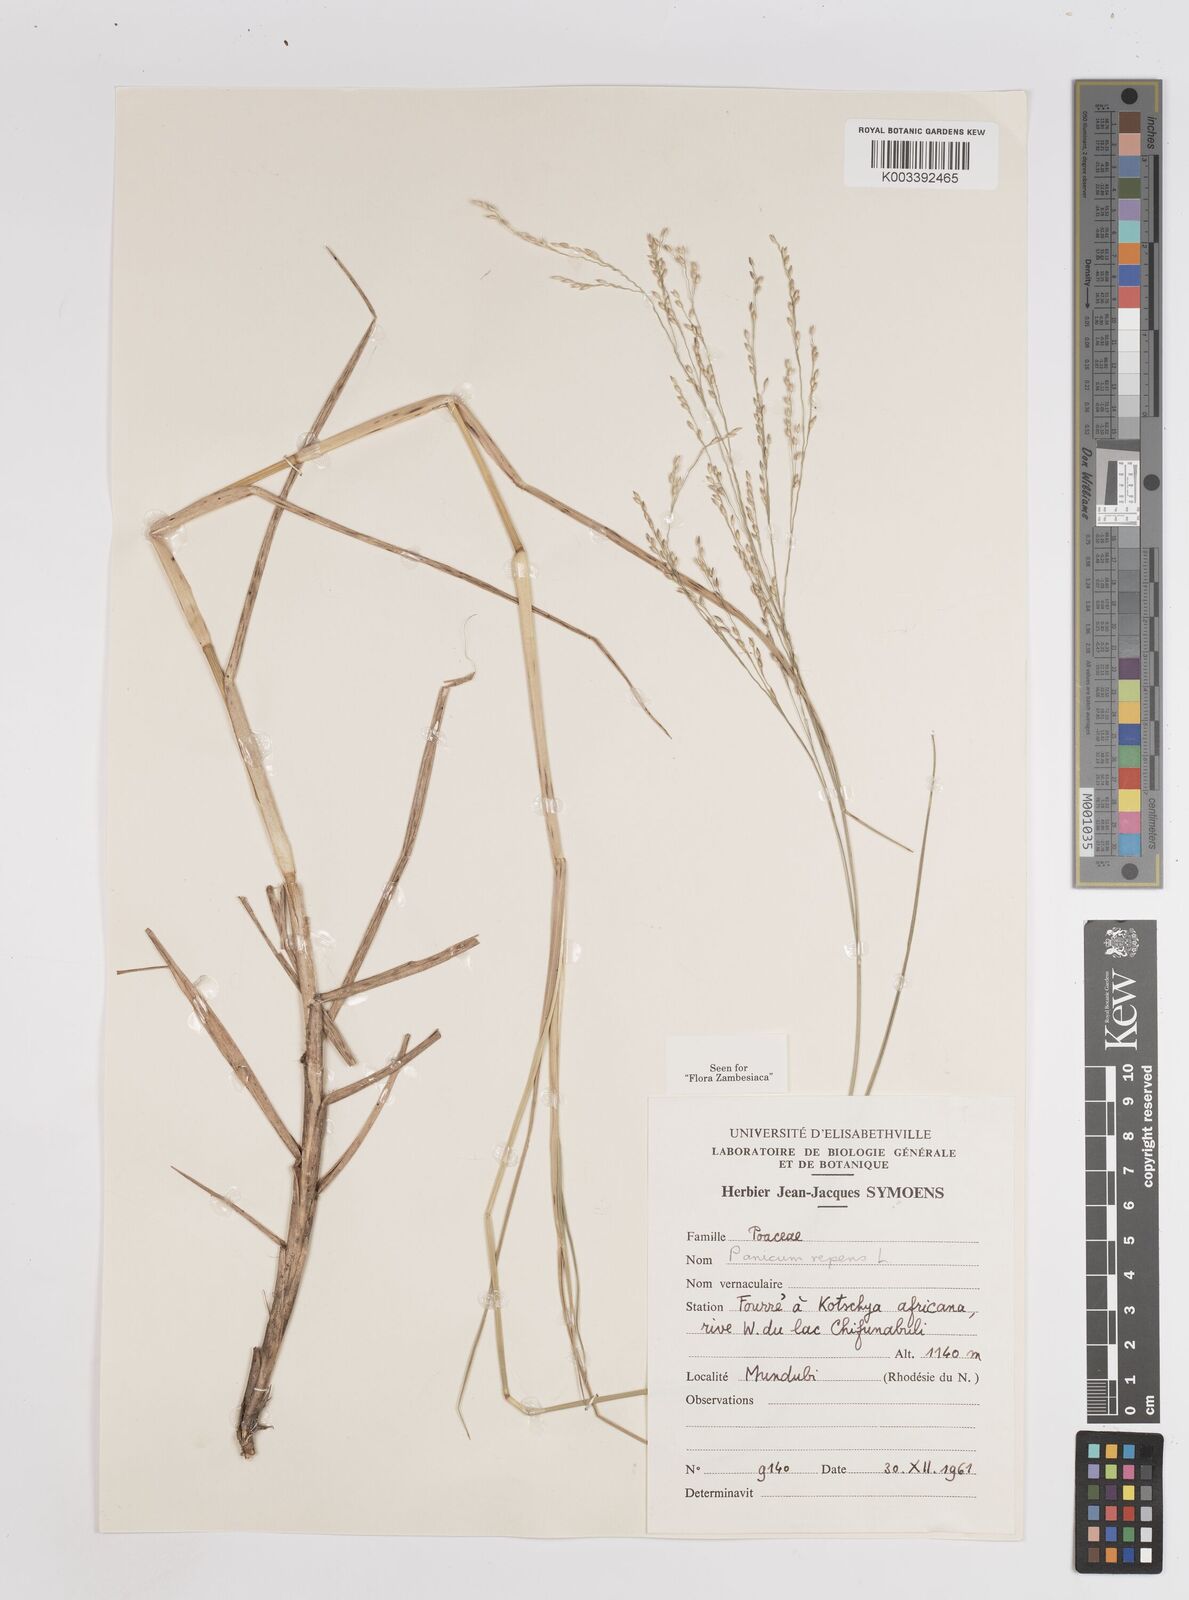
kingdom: Plantae
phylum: Tracheophyta
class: Liliopsida
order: Poales
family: Poaceae
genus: Panicum
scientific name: Panicum repens
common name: Torpedo grass
